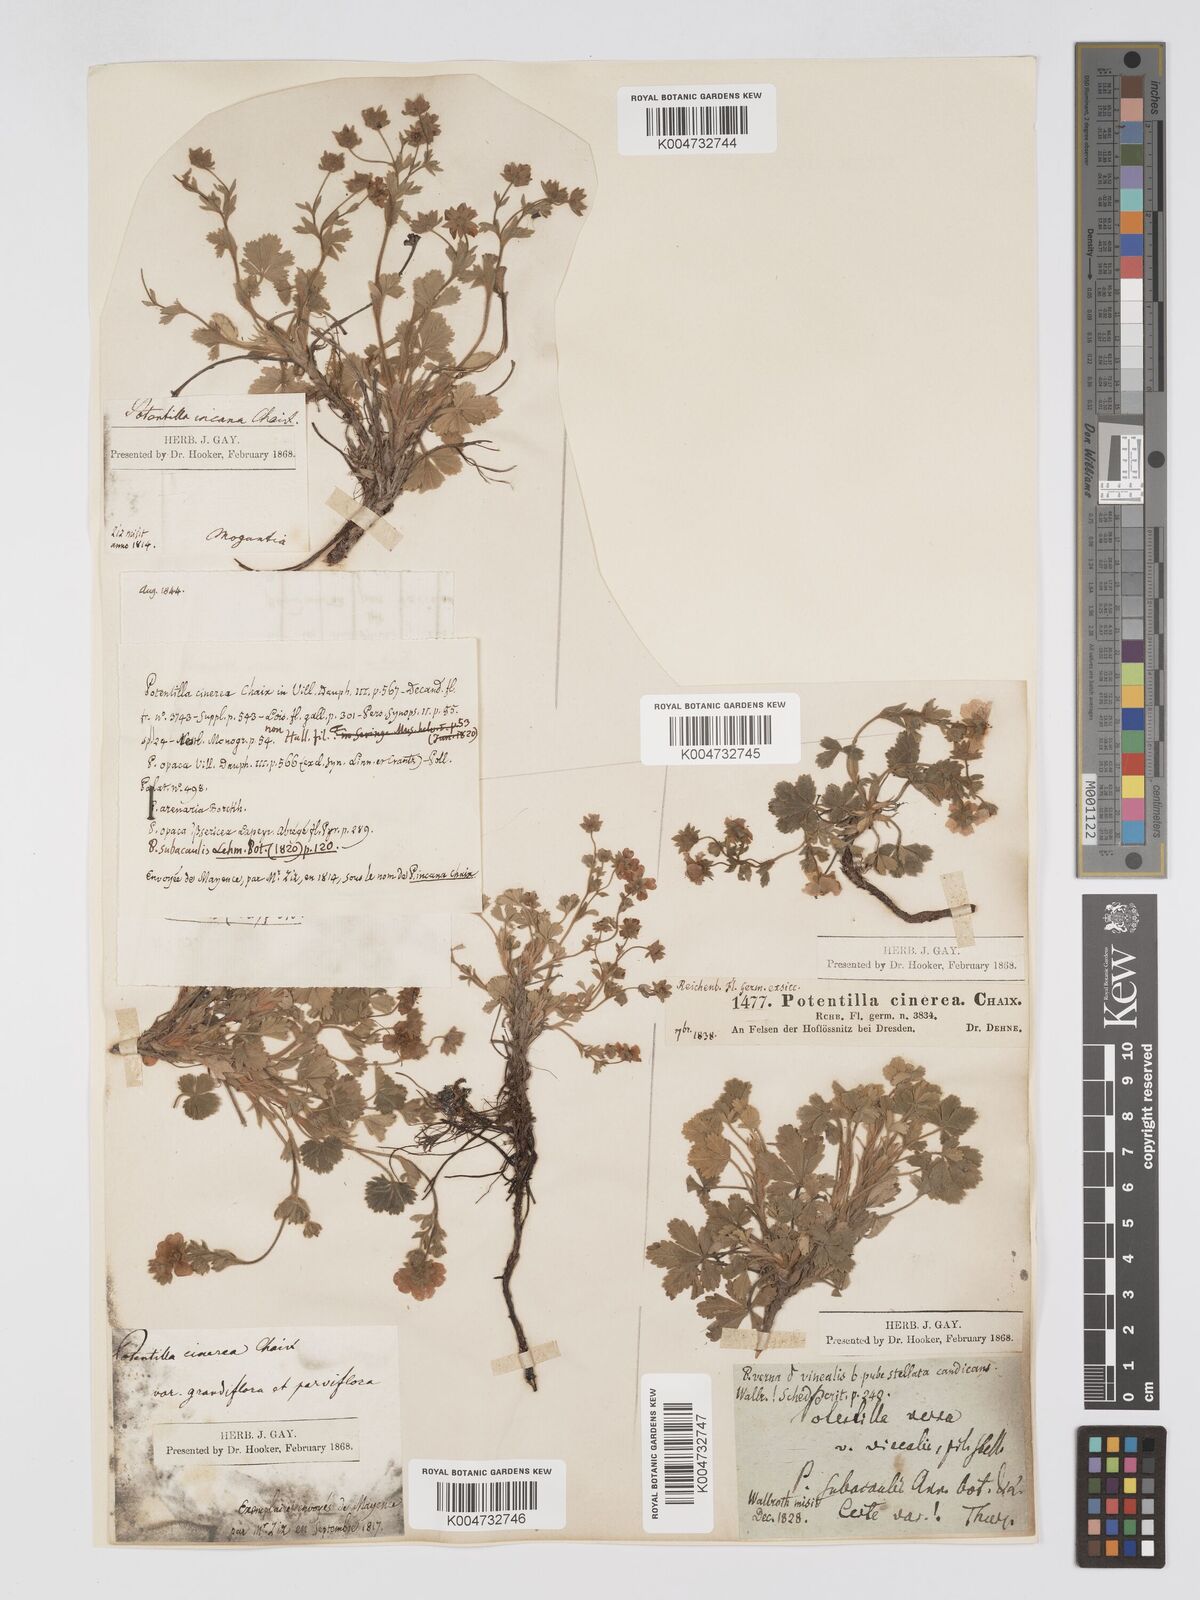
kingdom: Plantae
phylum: Tracheophyta
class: Magnoliopsida
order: Rosales
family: Rosaceae
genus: Potentilla
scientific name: Potentilla
